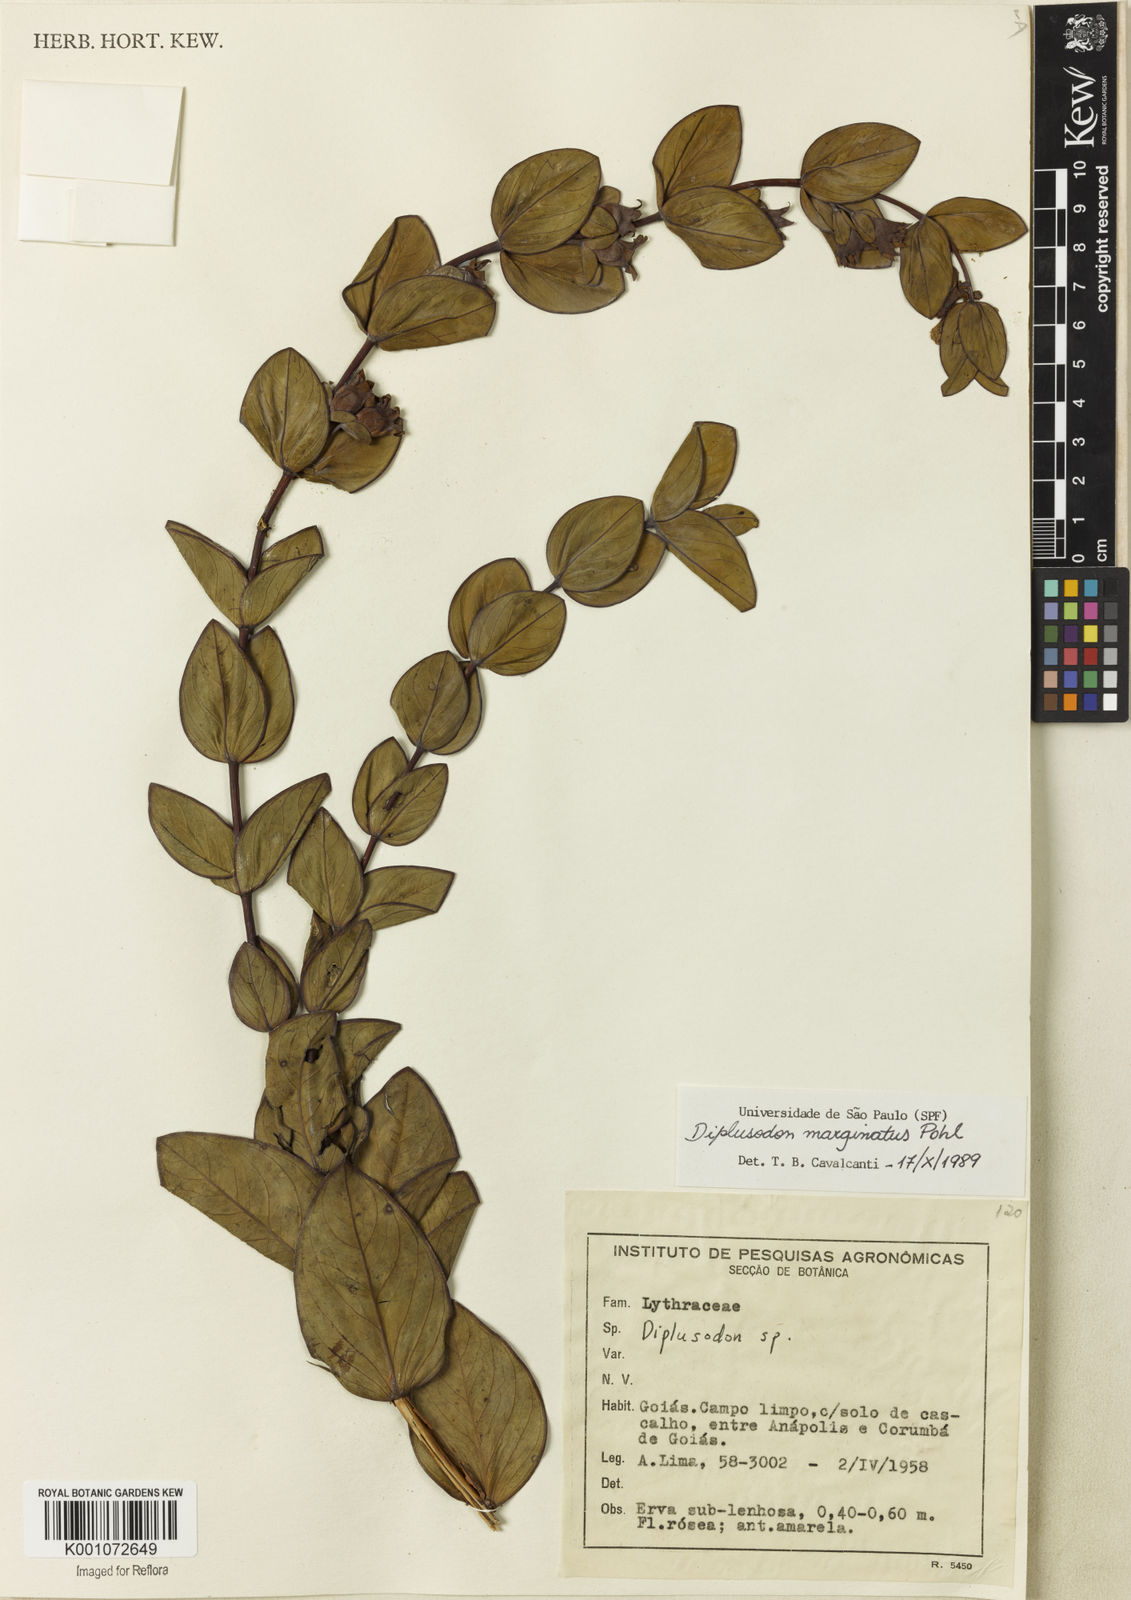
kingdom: Plantae
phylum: Tracheophyta
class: Magnoliopsida
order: Myrtales
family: Lythraceae
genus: Diplusodon
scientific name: Diplusodon marginatus
